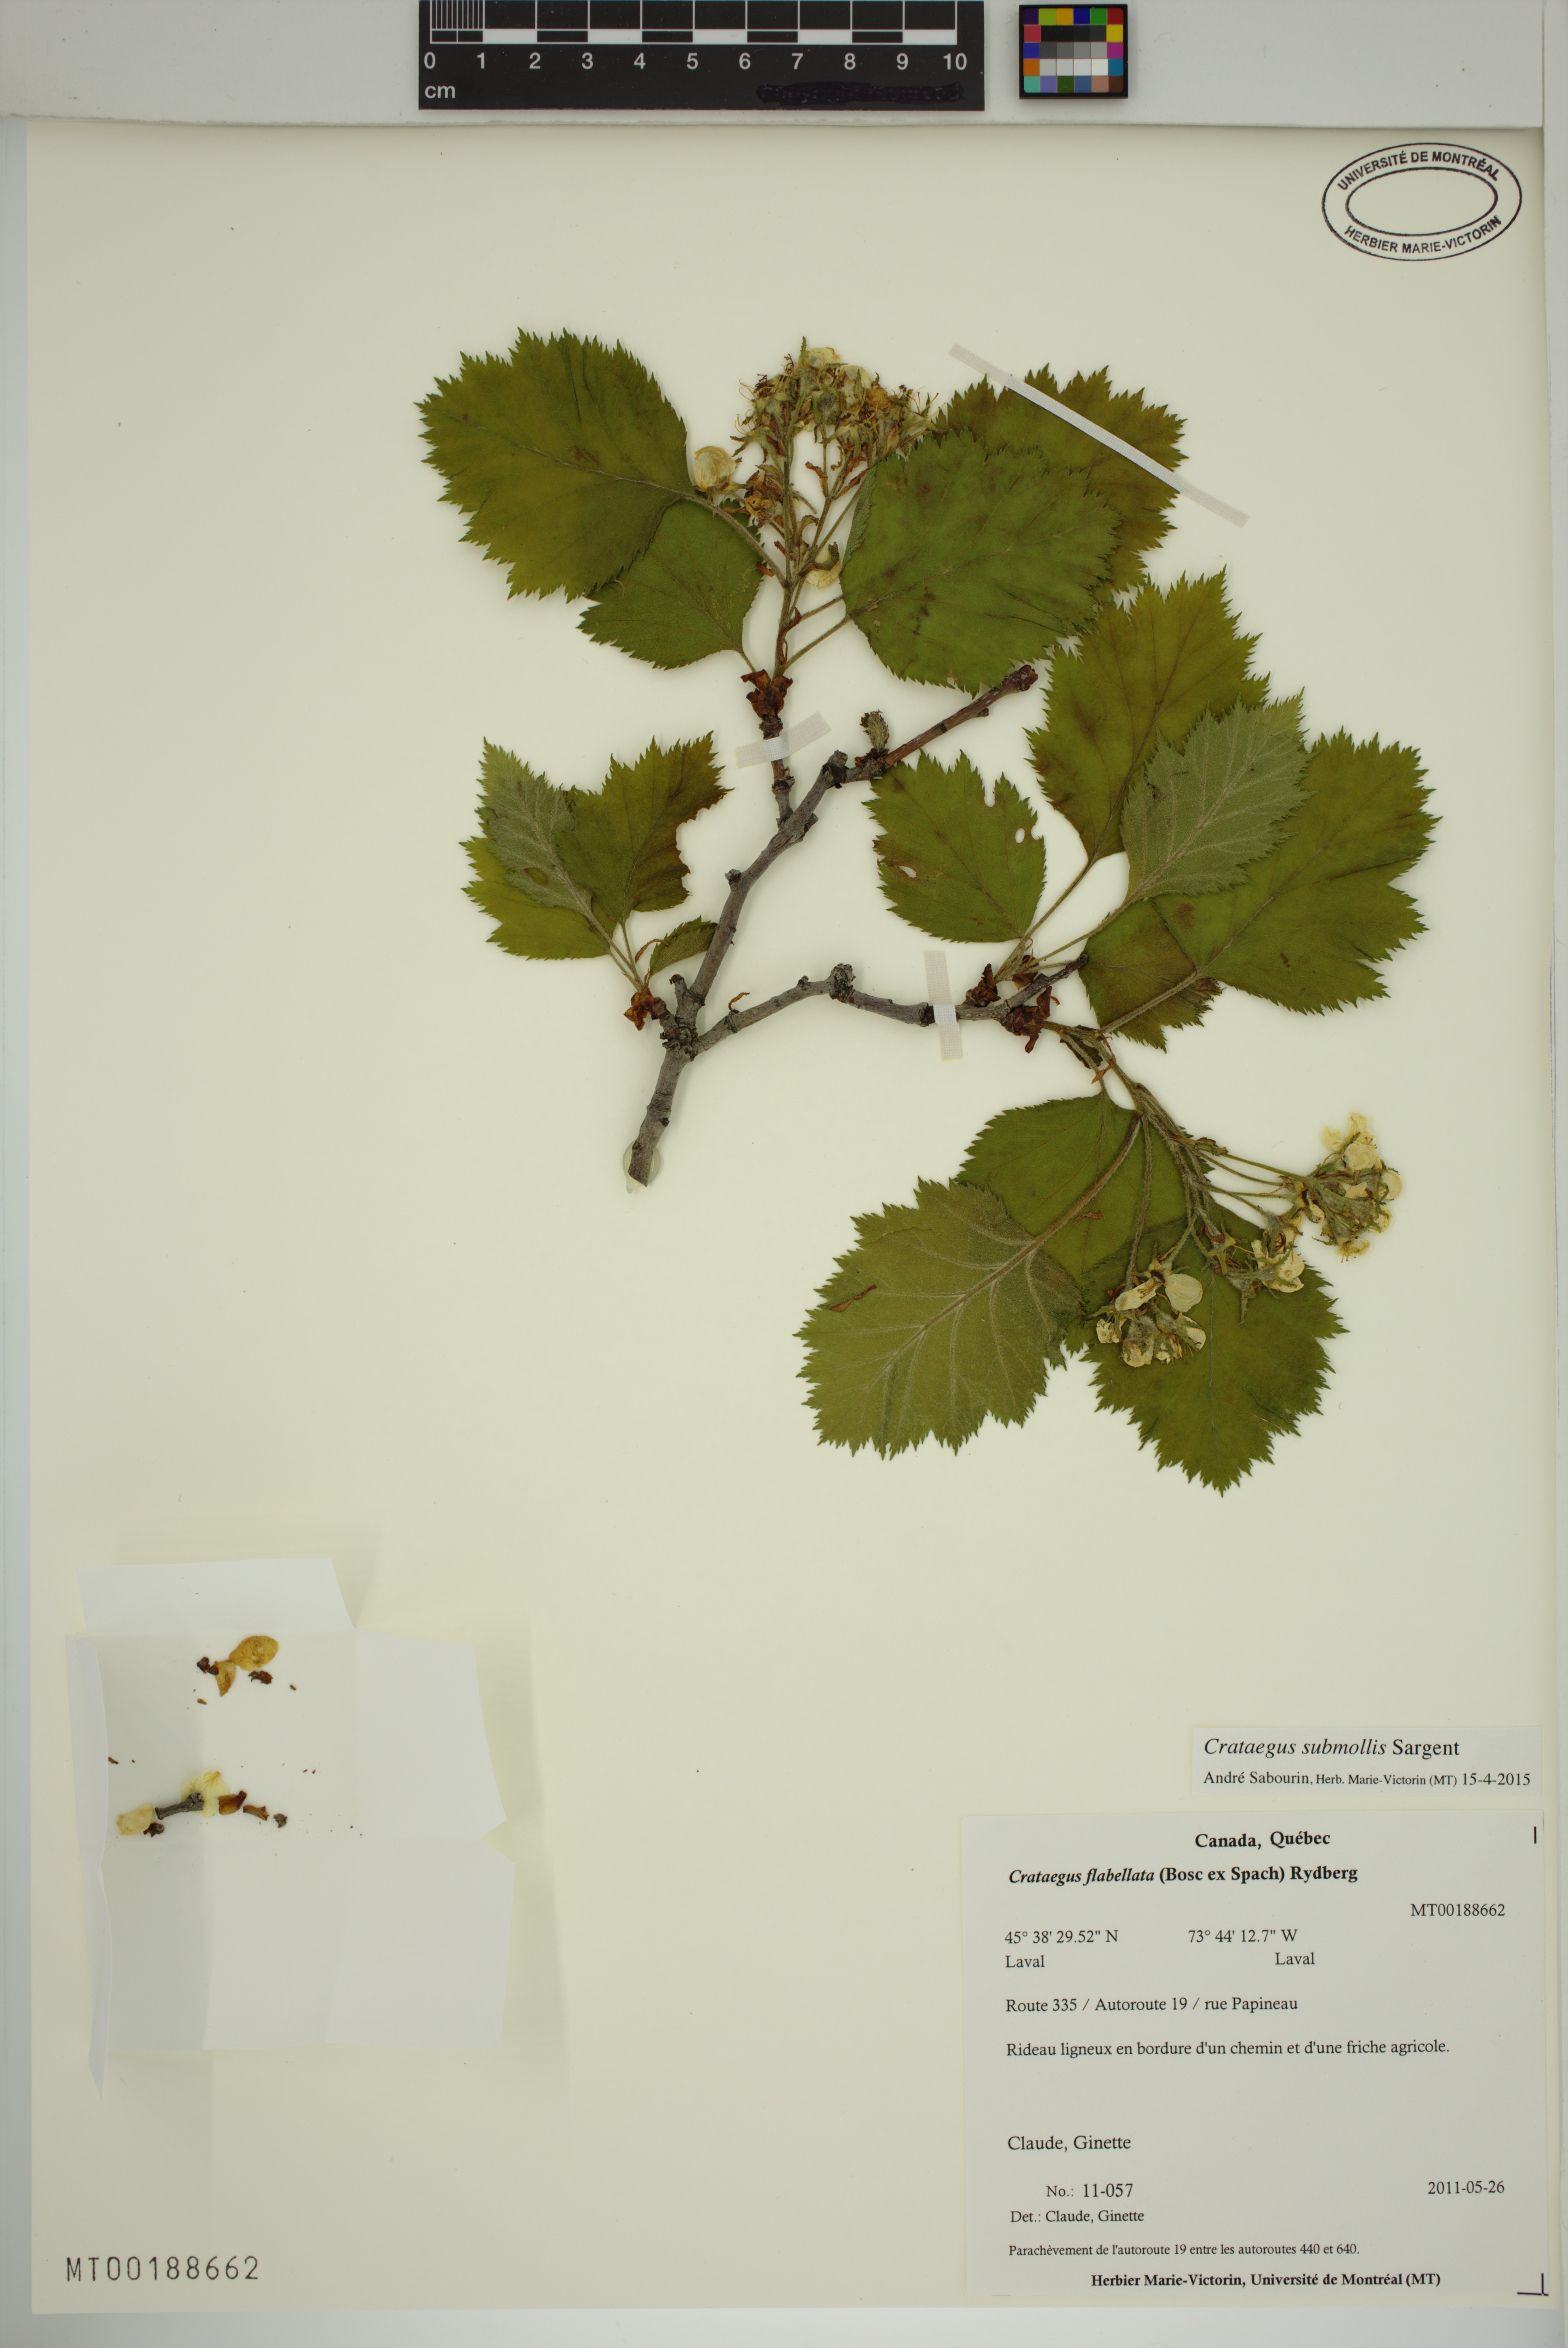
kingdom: Plantae
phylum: Tracheophyta
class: Magnoliopsida
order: Rosales
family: Rosaceae
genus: Crataegus
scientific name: Crataegus submollis
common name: Hairy cockspurthorn
